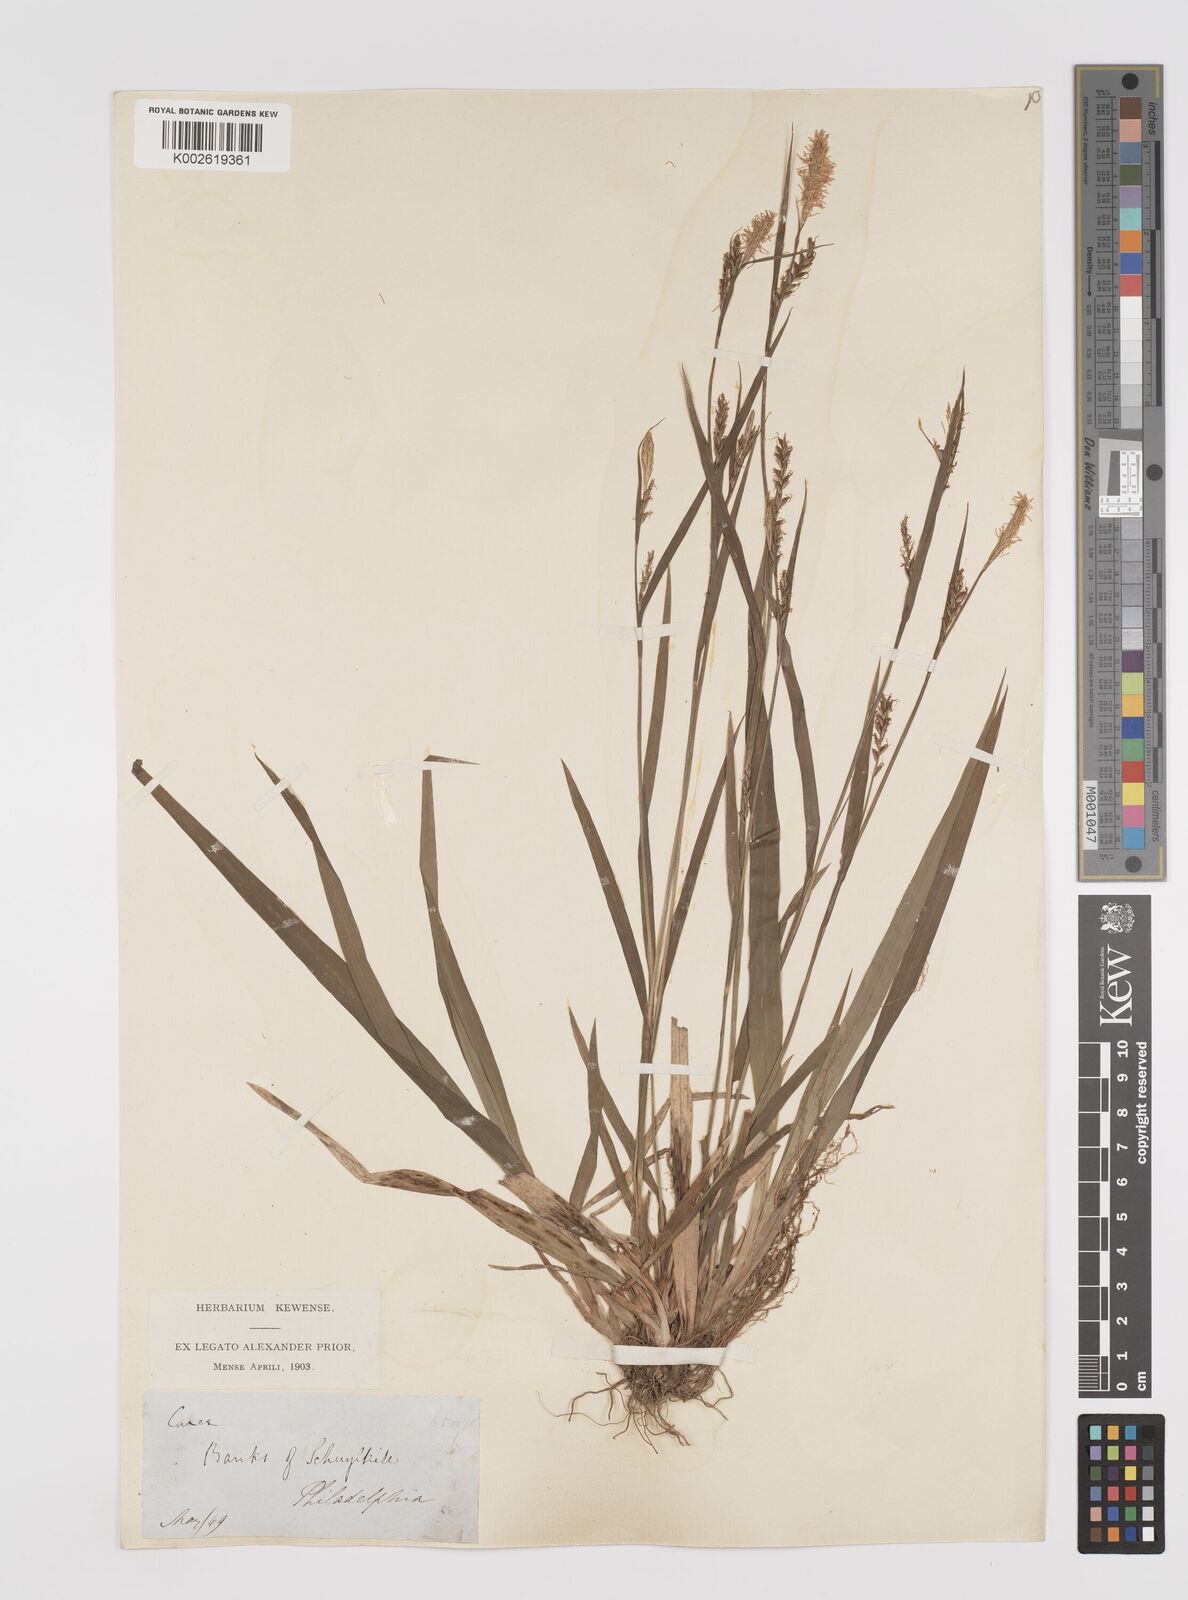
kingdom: Plantae
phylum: Tracheophyta
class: Liliopsida
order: Poales
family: Cyperaceae
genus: Carex
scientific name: Carex grisea
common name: Eastern narrow-leaved sedge
